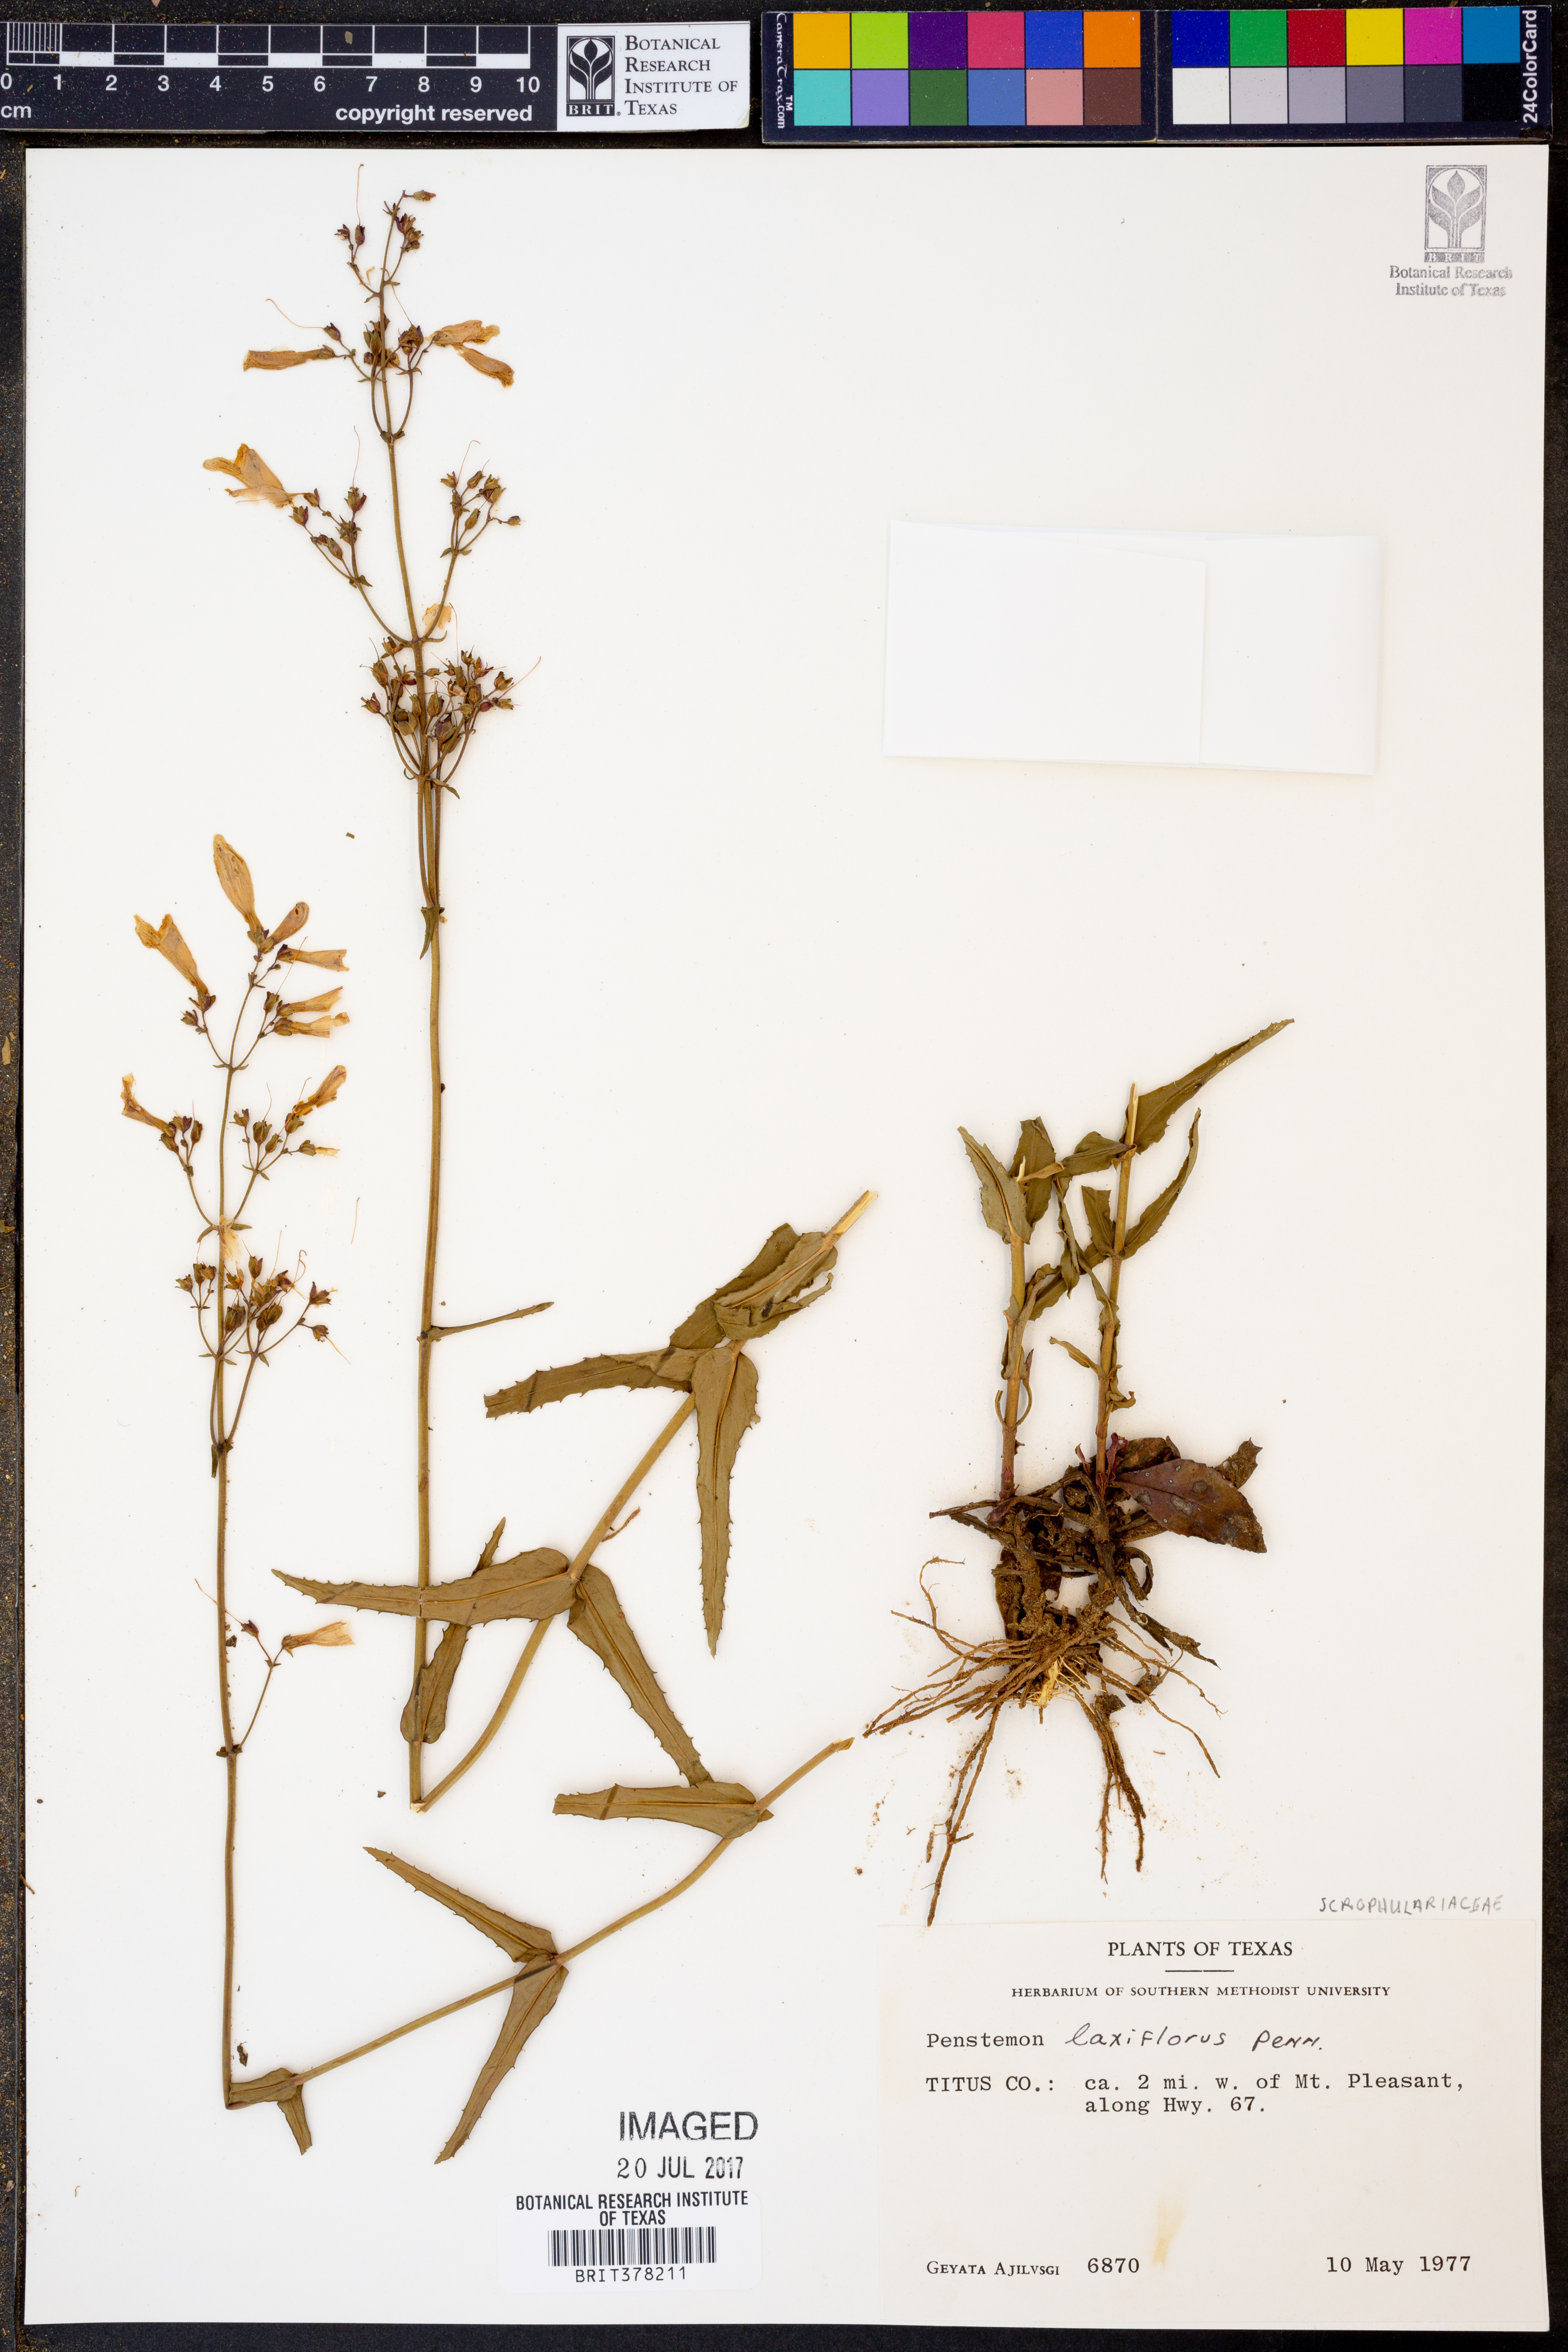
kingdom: Plantae
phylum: Tracheophyta
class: Magnoliopsida
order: Lamiales
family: Plantaginaceae
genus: Penstemon
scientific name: Penstemon laxiflorus
